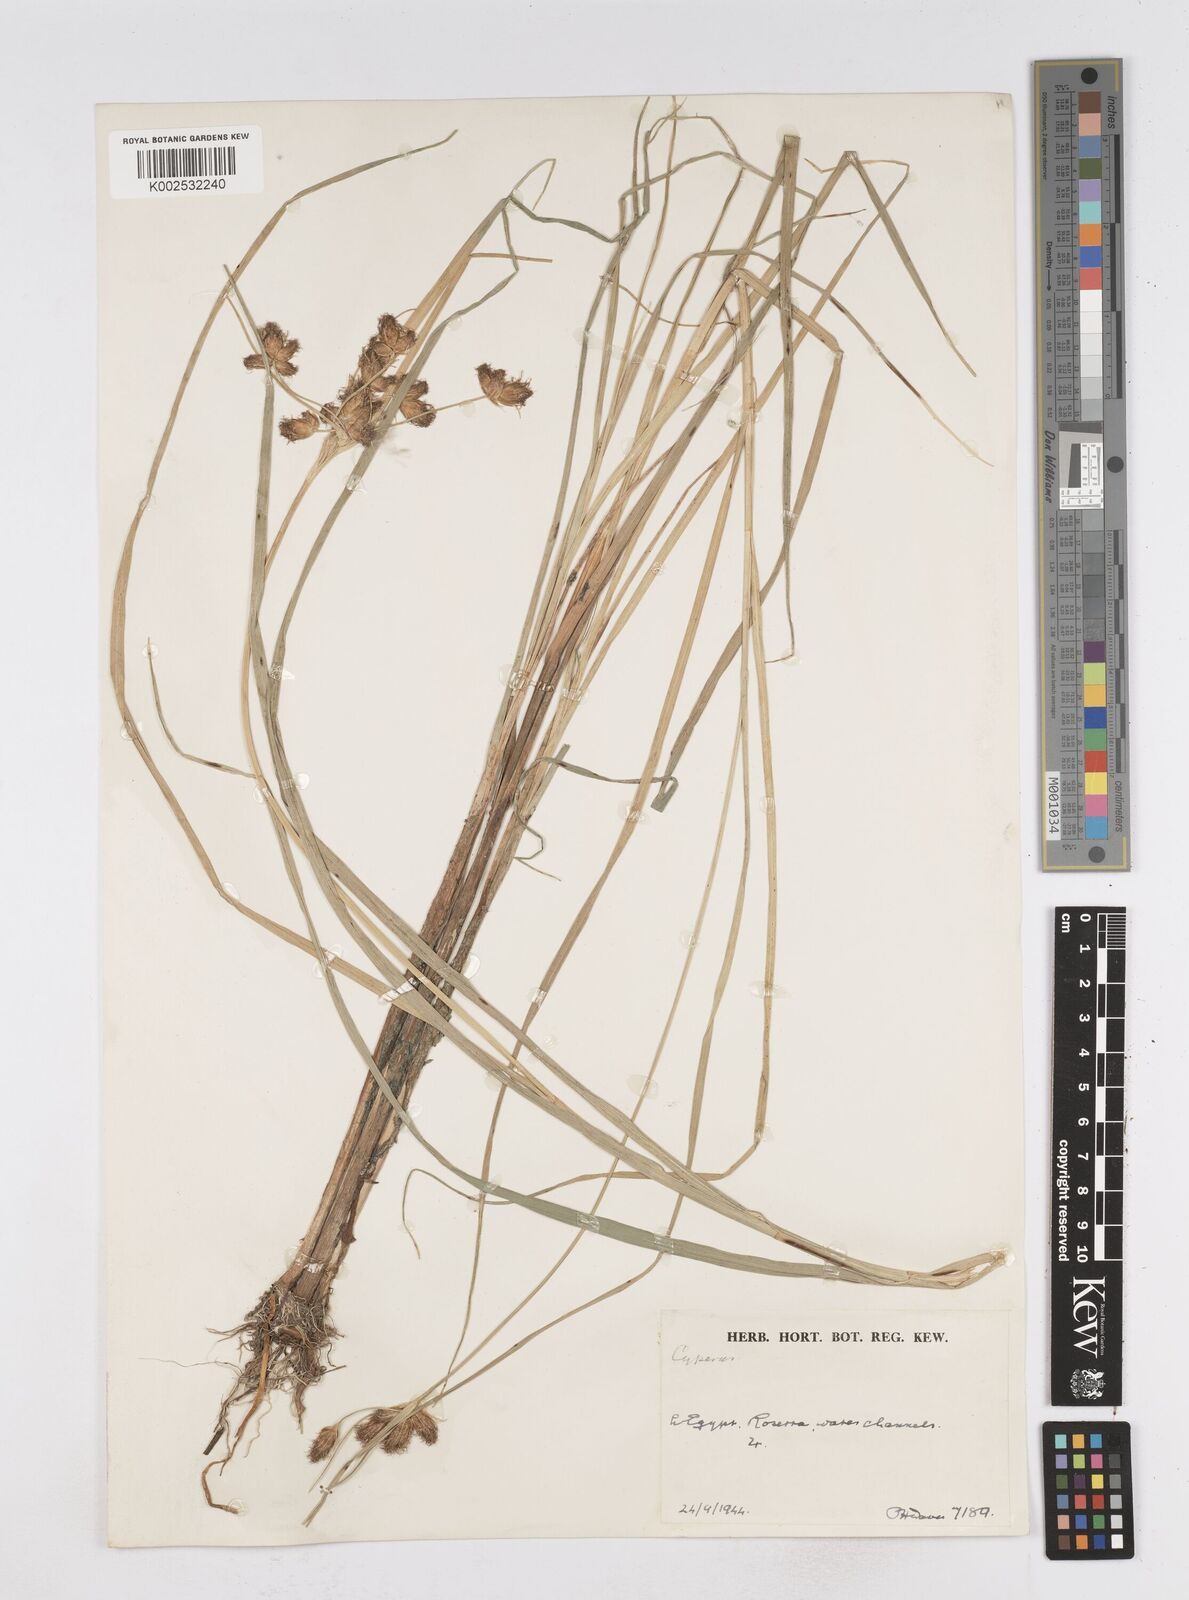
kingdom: Plantae
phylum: Tracheophyta
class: Liliopsida
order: Poales
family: Cyperaceae
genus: Bolboschoenus
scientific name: Bolboschoenus maritimus
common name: Sea club-rush
